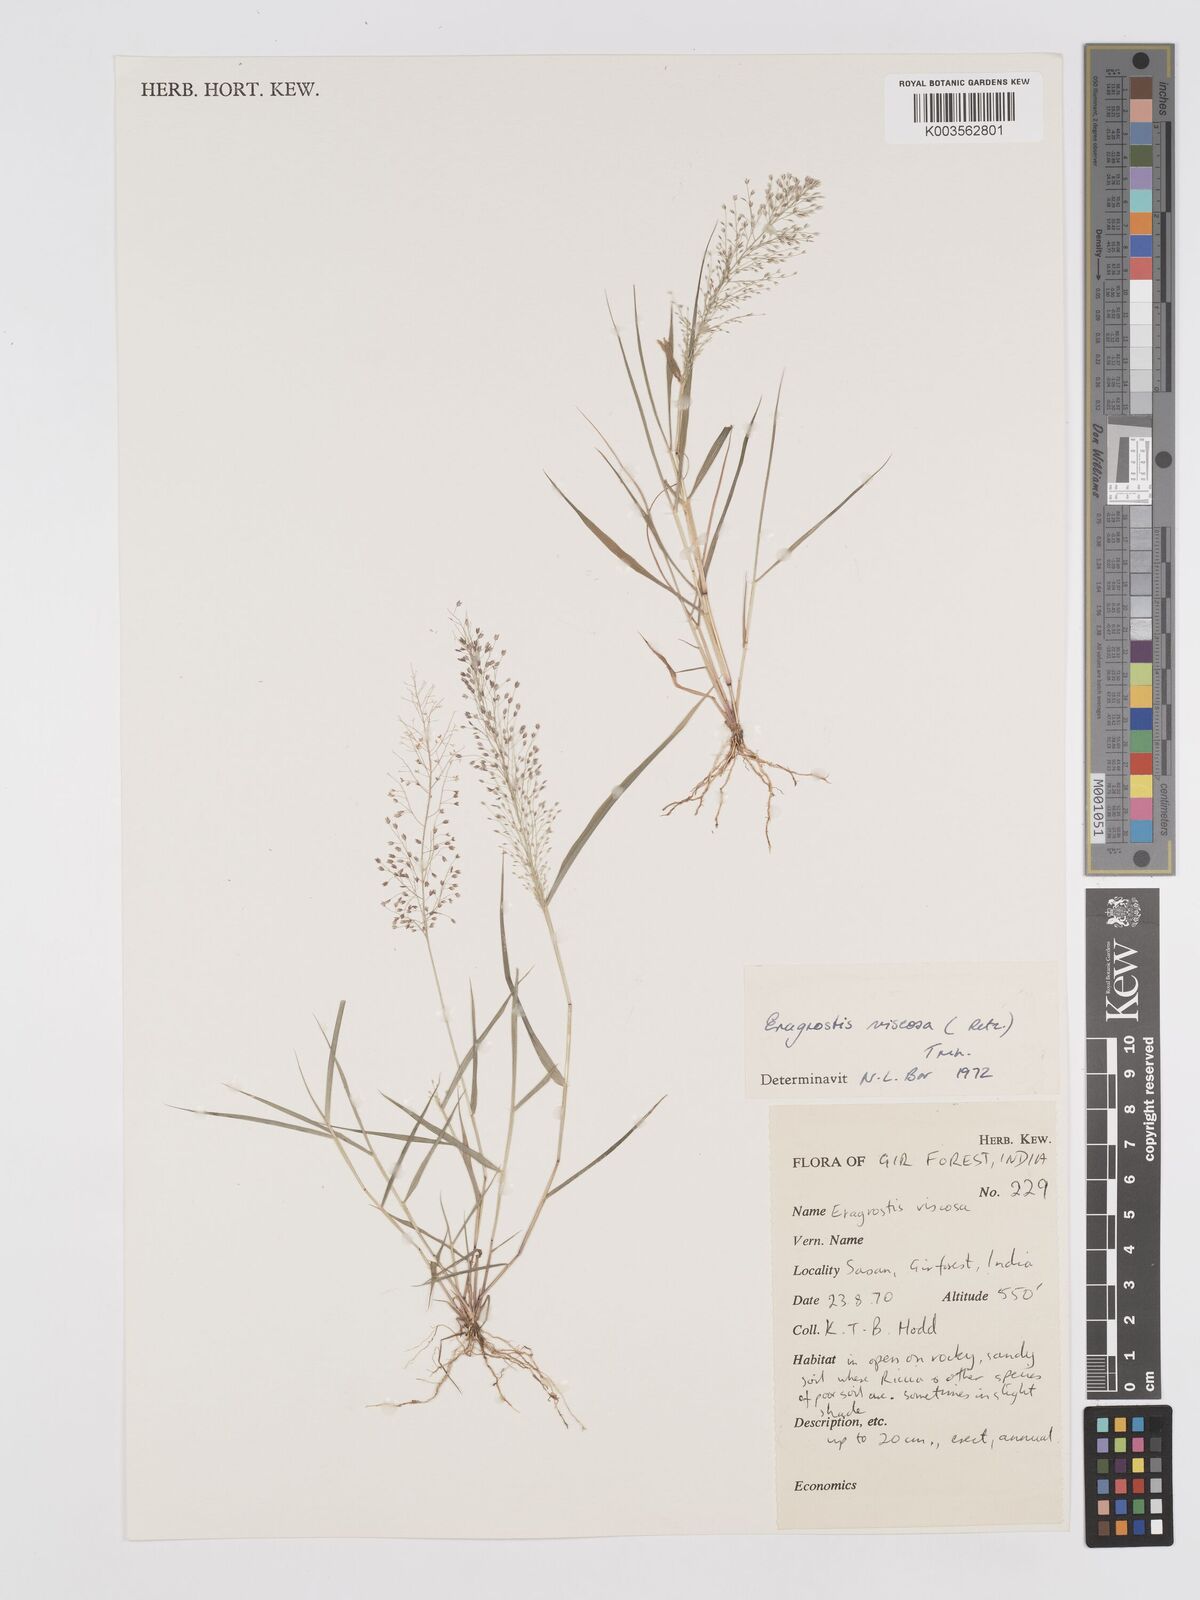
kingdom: Plantae
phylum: Tracheophyta
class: Liliopsida
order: Poales
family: Poaceae
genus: Eragrostis
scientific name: Eragrostis viscosa
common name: Sticky love grass
